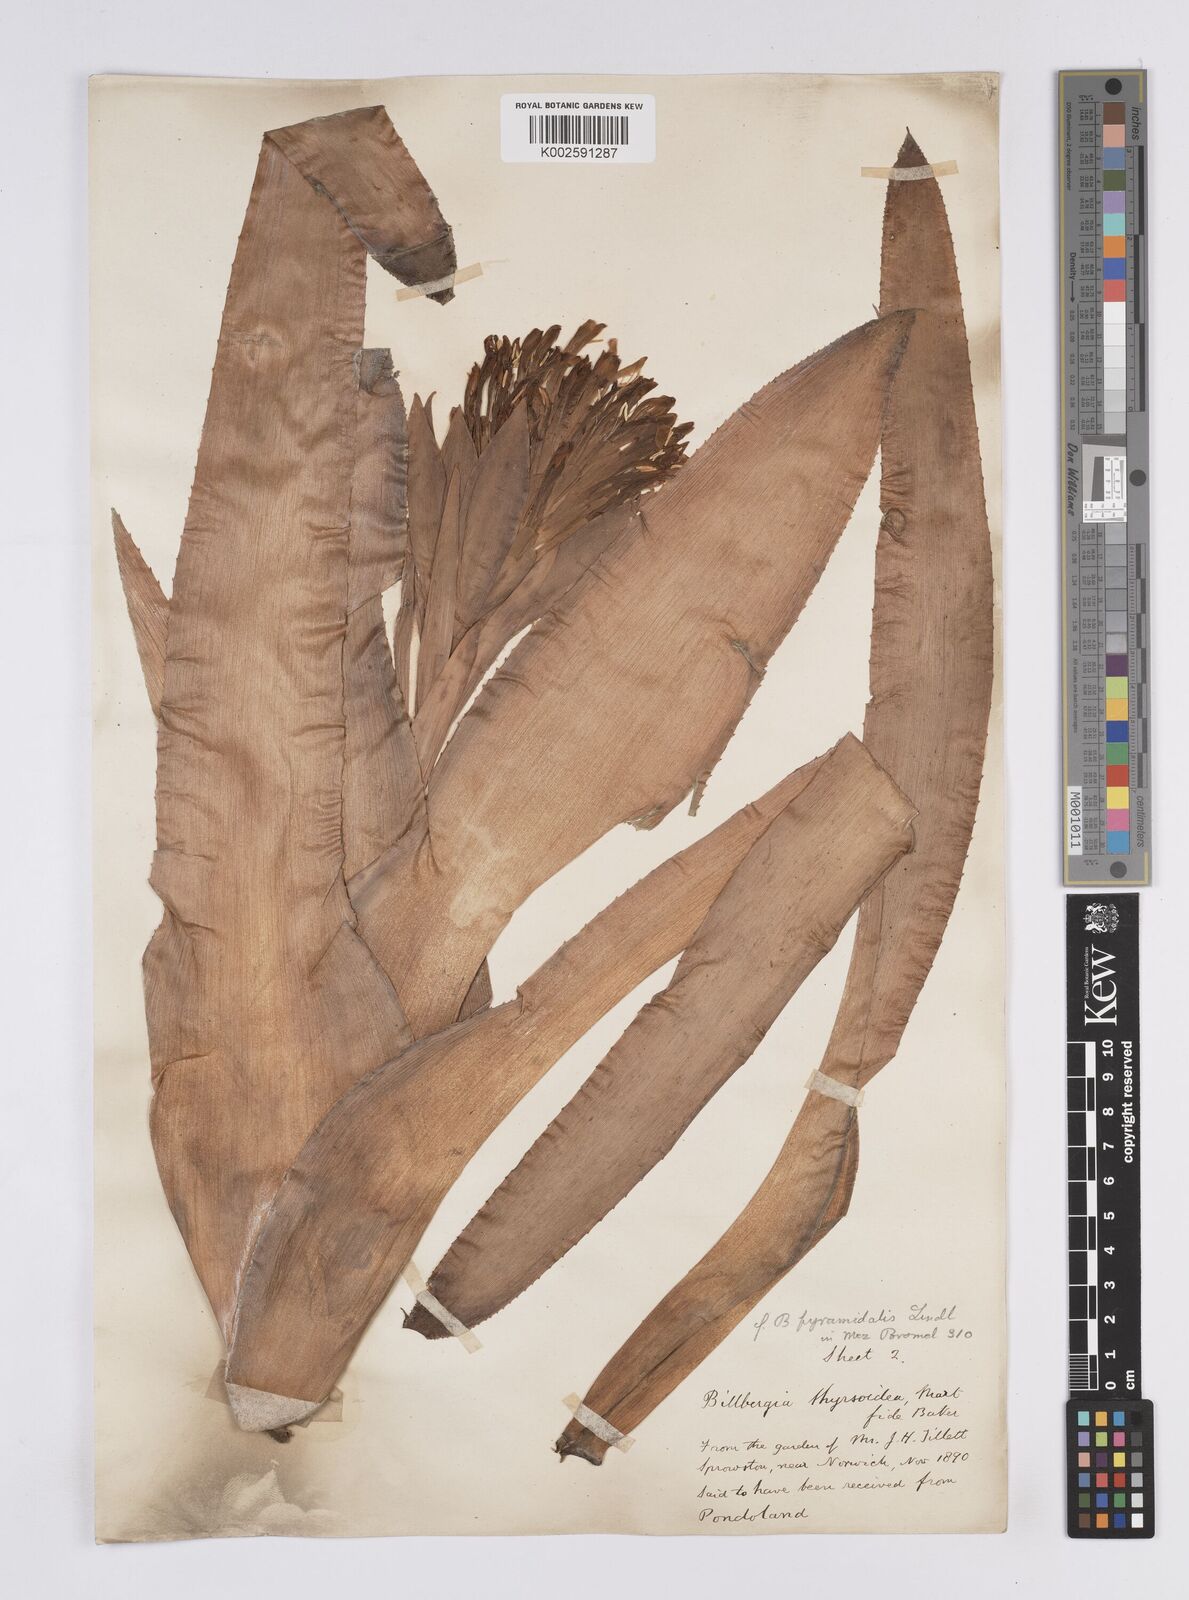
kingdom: Plantae
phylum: Tracheophyta
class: Liliopsida
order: Poales
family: Bromeliaceae
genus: Billbergia
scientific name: Billbergia pyramidalis
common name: Foolproofplant
